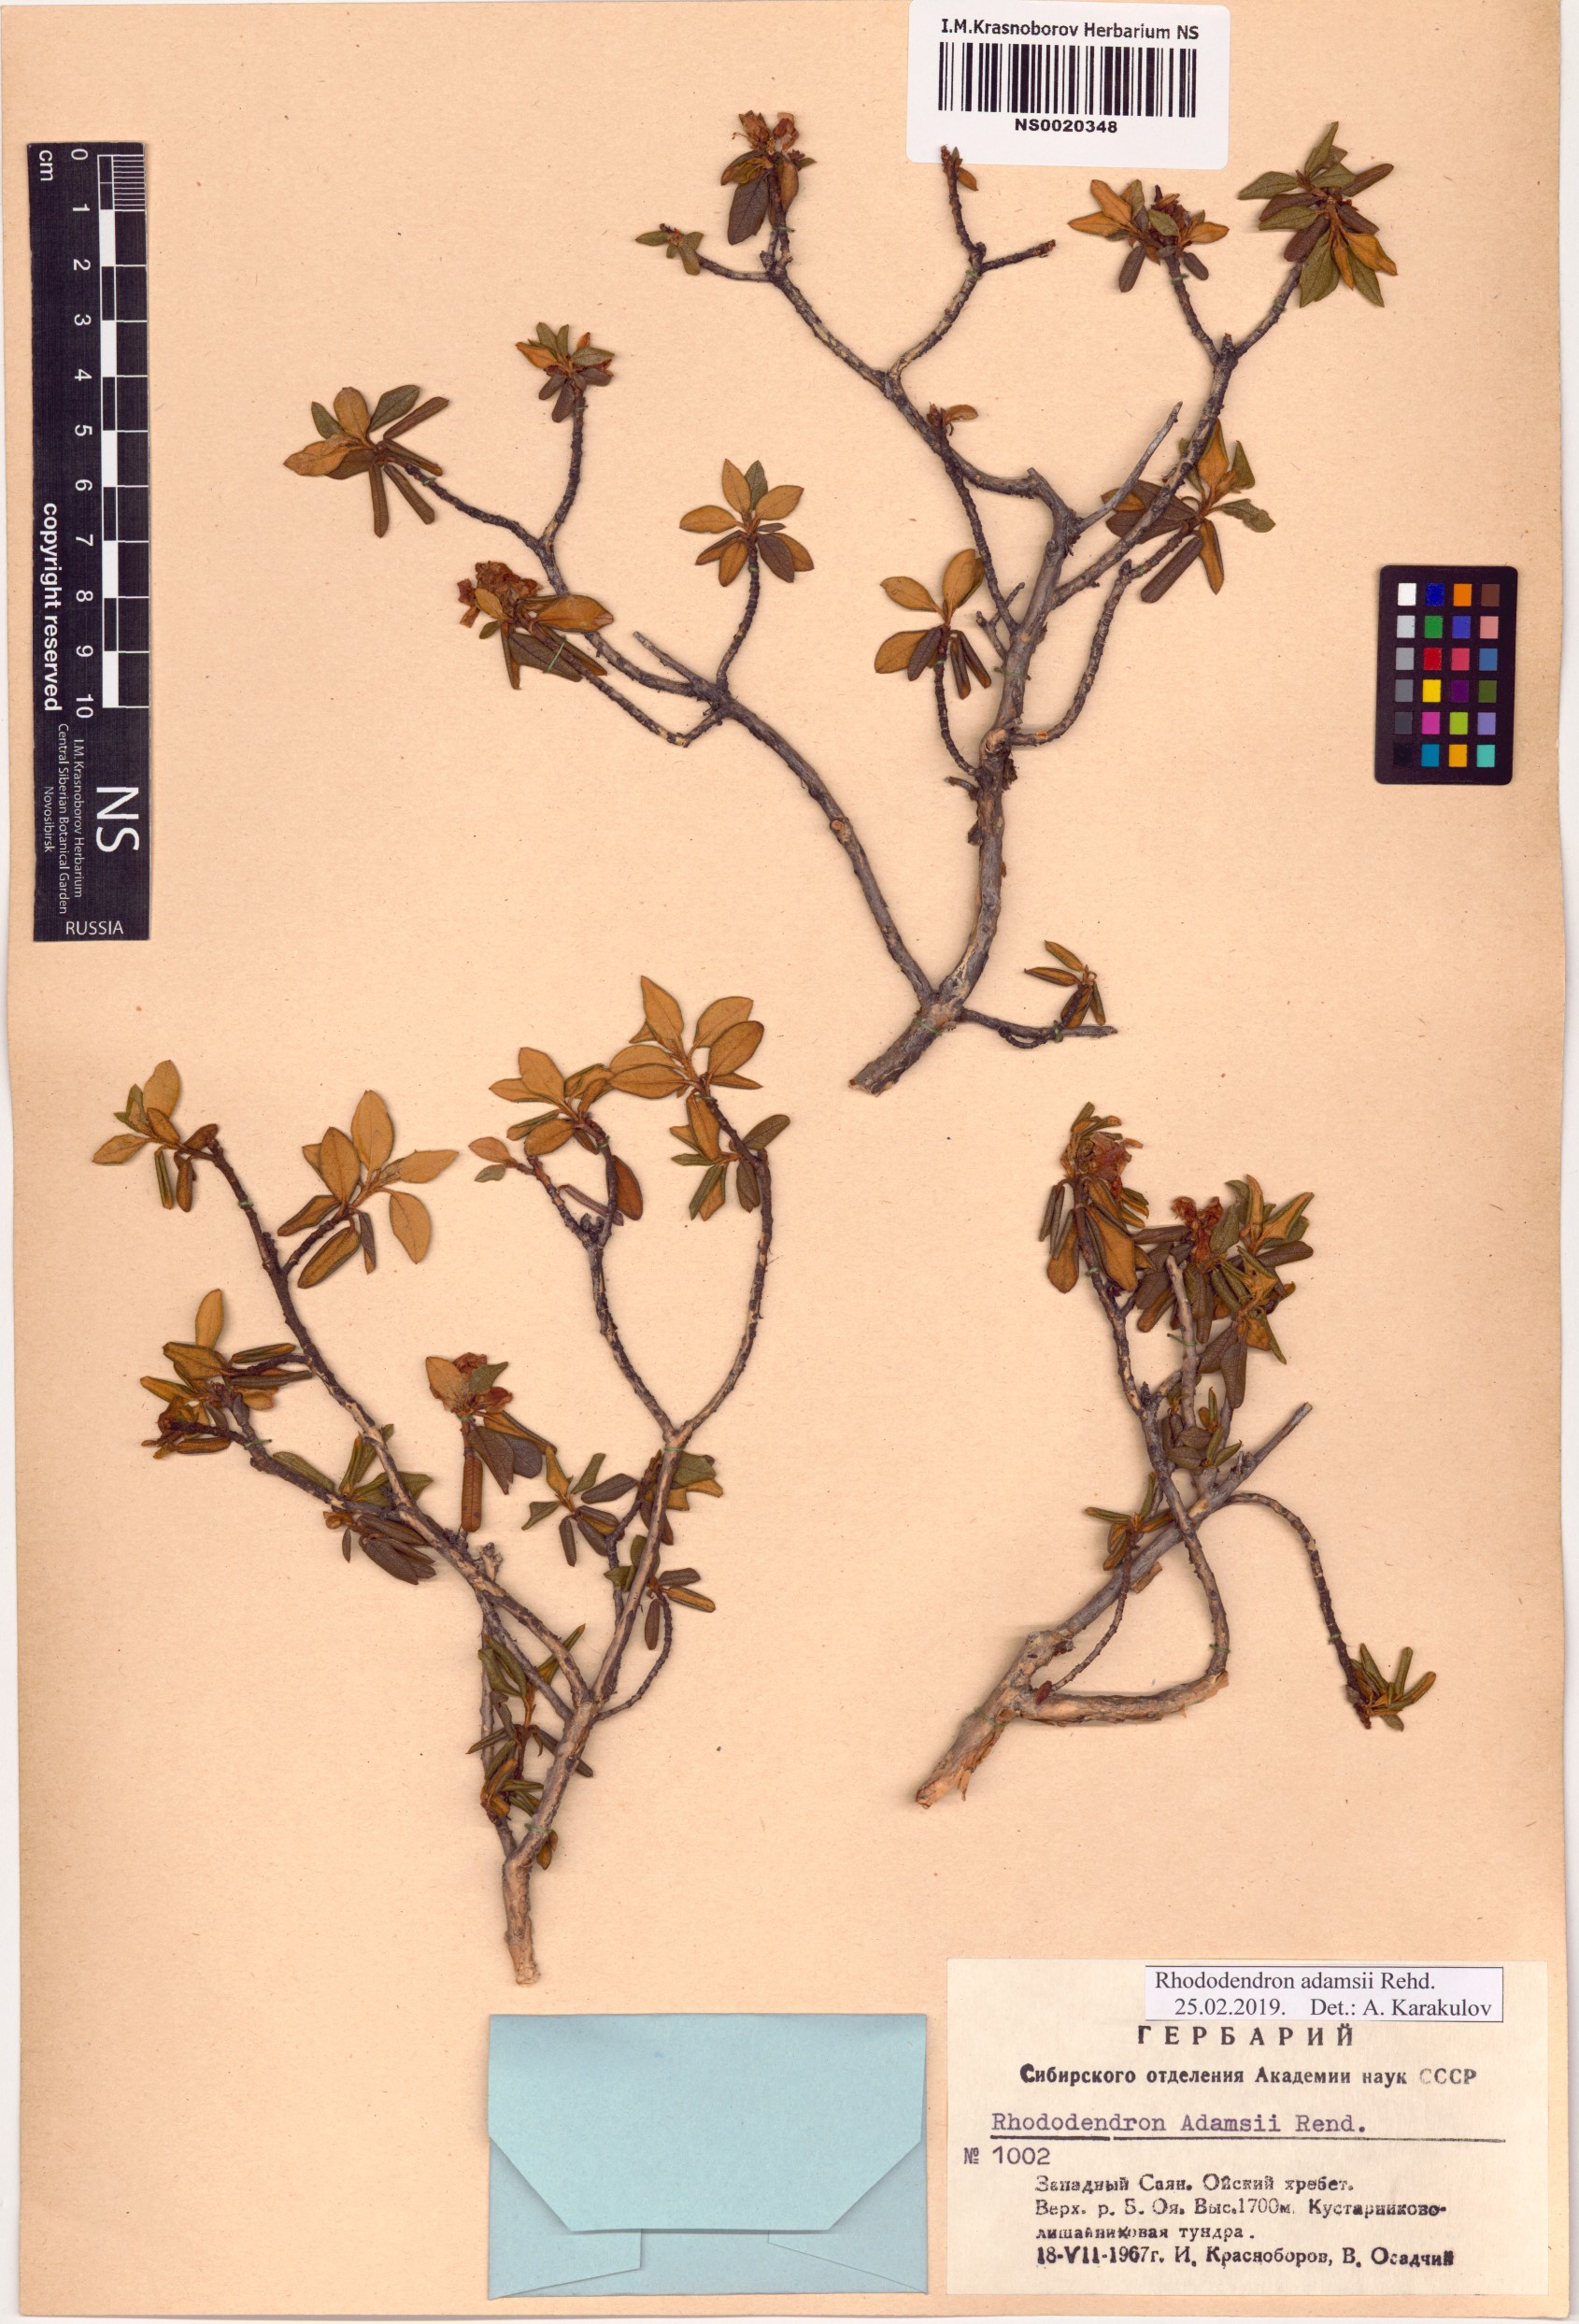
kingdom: Plantae
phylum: Tracheophyta
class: Magnoliopsida
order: Ericales
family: Ericaceae
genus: Rhododendron
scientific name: Rhododendron adamsii
